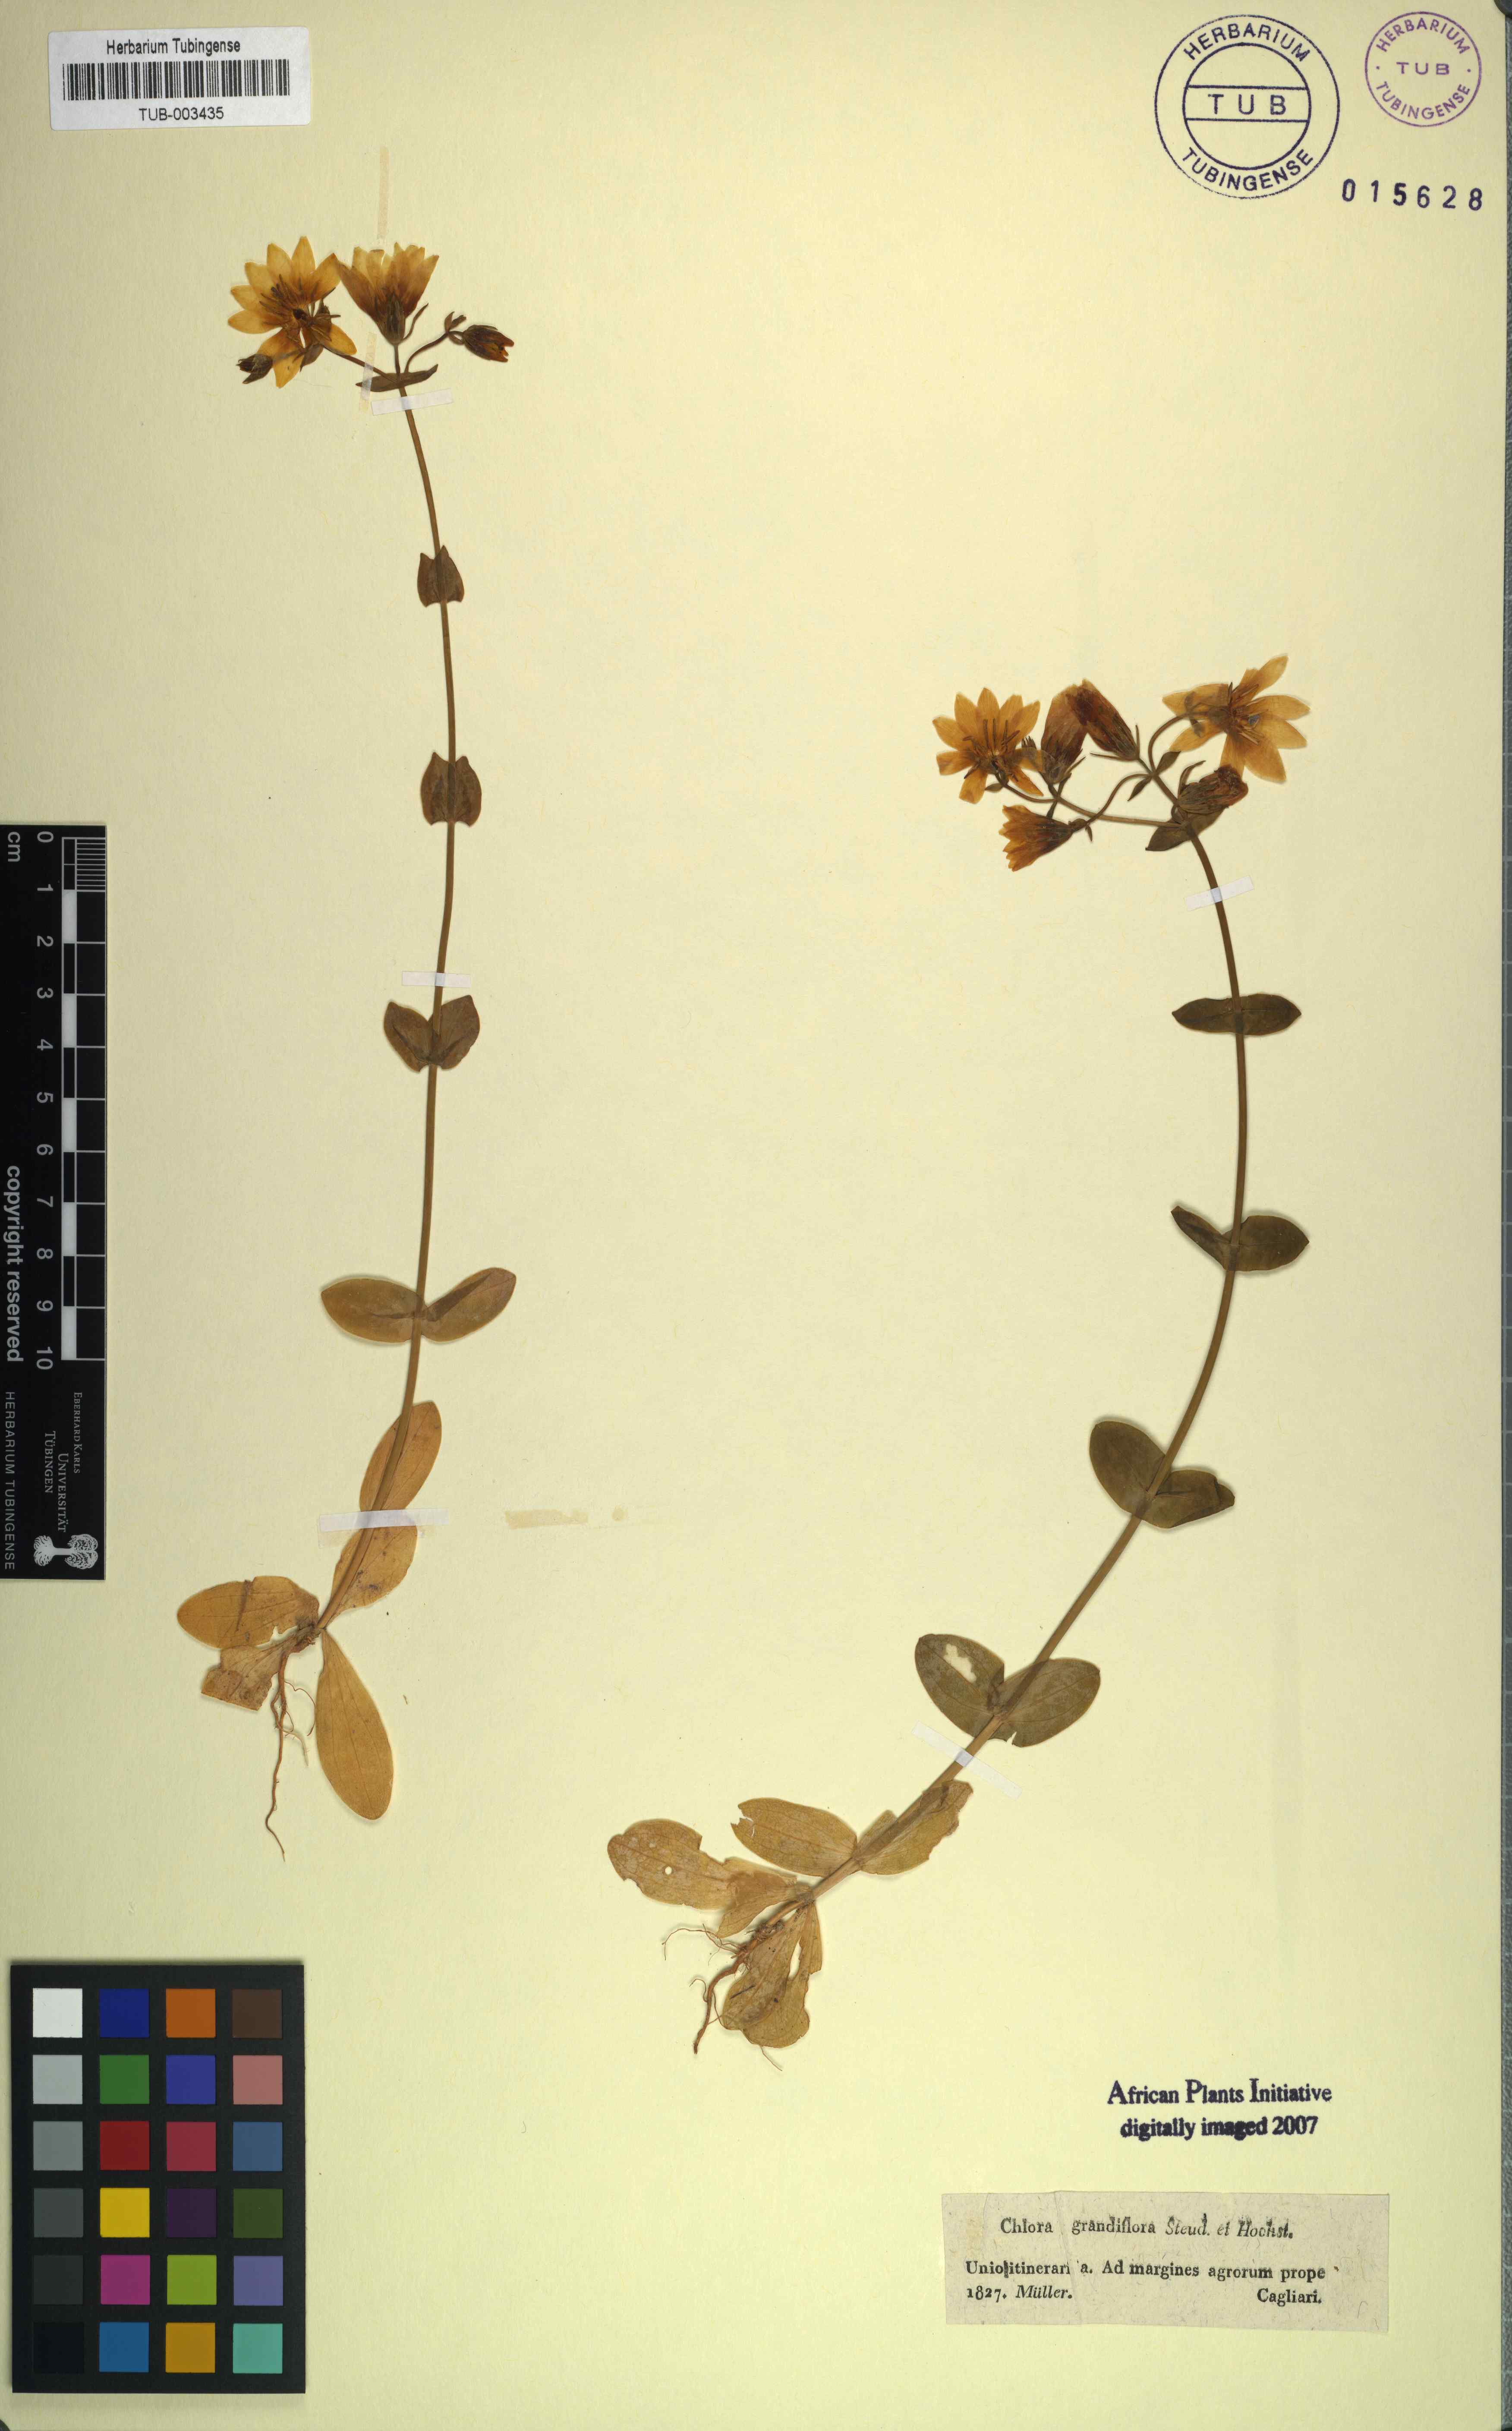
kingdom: Plantae
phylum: Tracheophyta
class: Magnoliopsida
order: Gentianales
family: Gentianaceae
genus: Blackstonia
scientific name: Blackstonia perfoliata
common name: Yellow-wort
